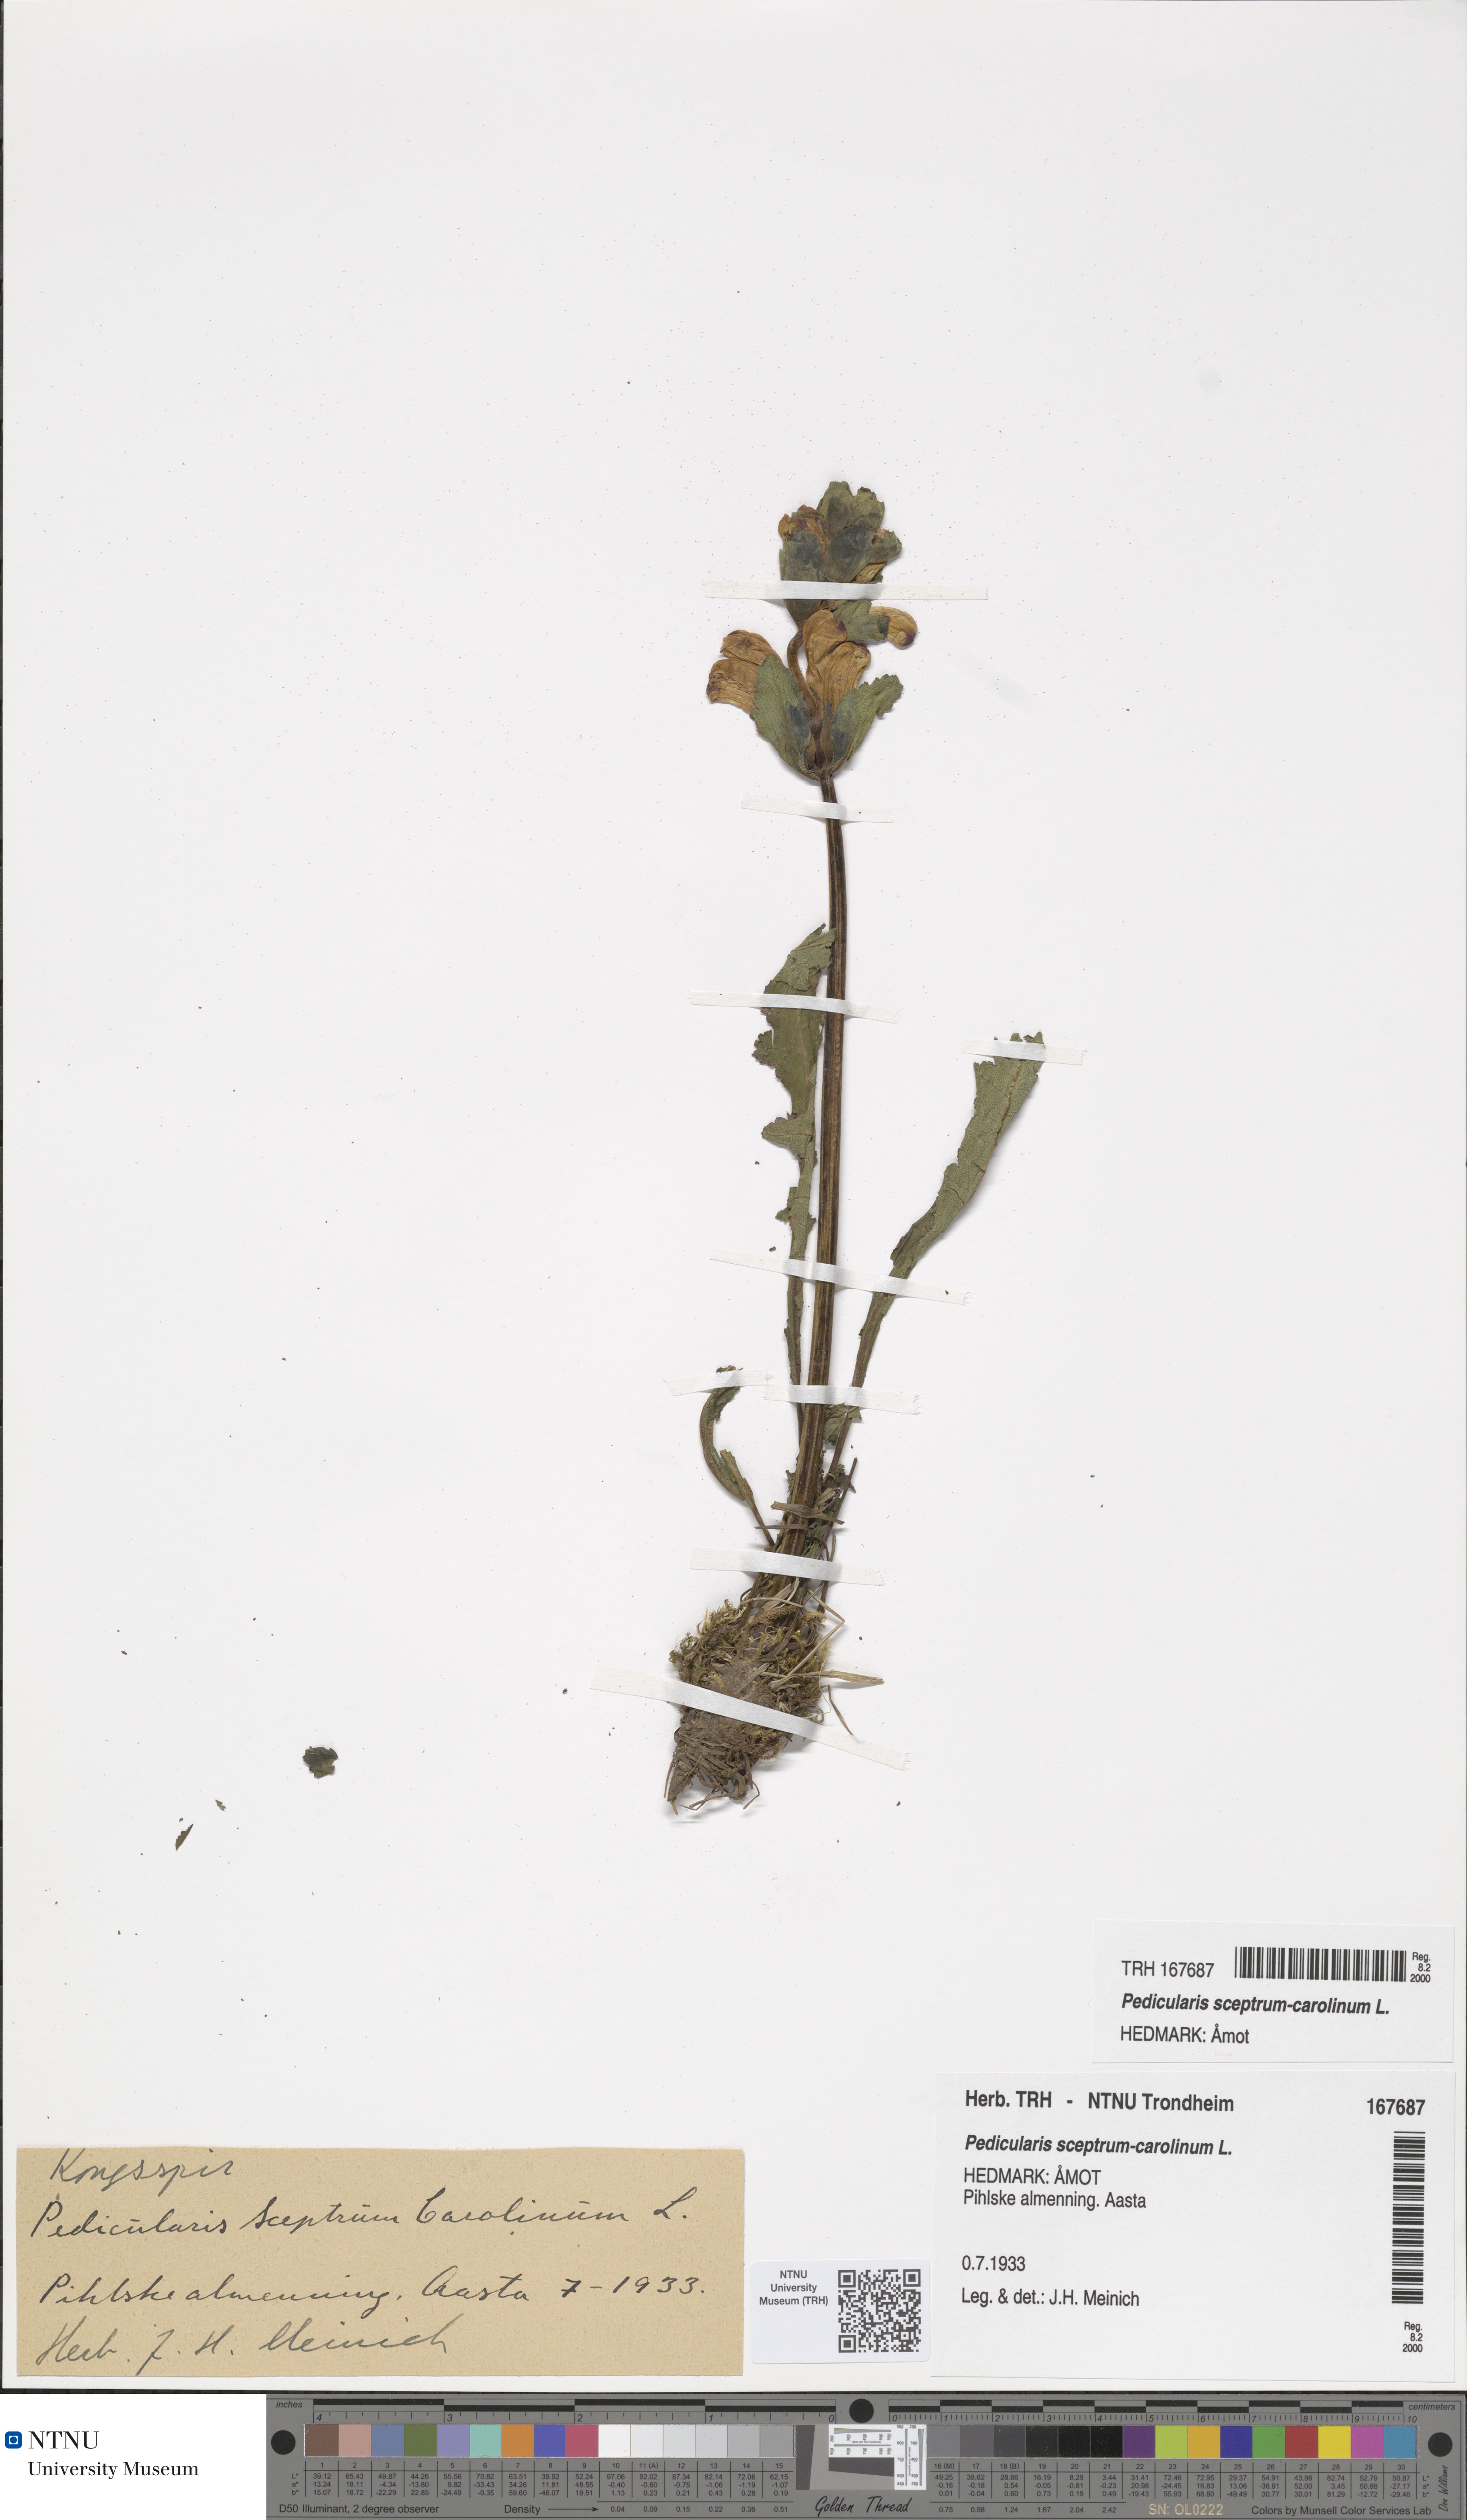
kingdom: Plantae
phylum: Tracheophyta
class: Magnoliopsida
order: Lamiales
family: Orobanchaceae
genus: Pedicularis
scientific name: Pedicularis sceptrum-carolinum
